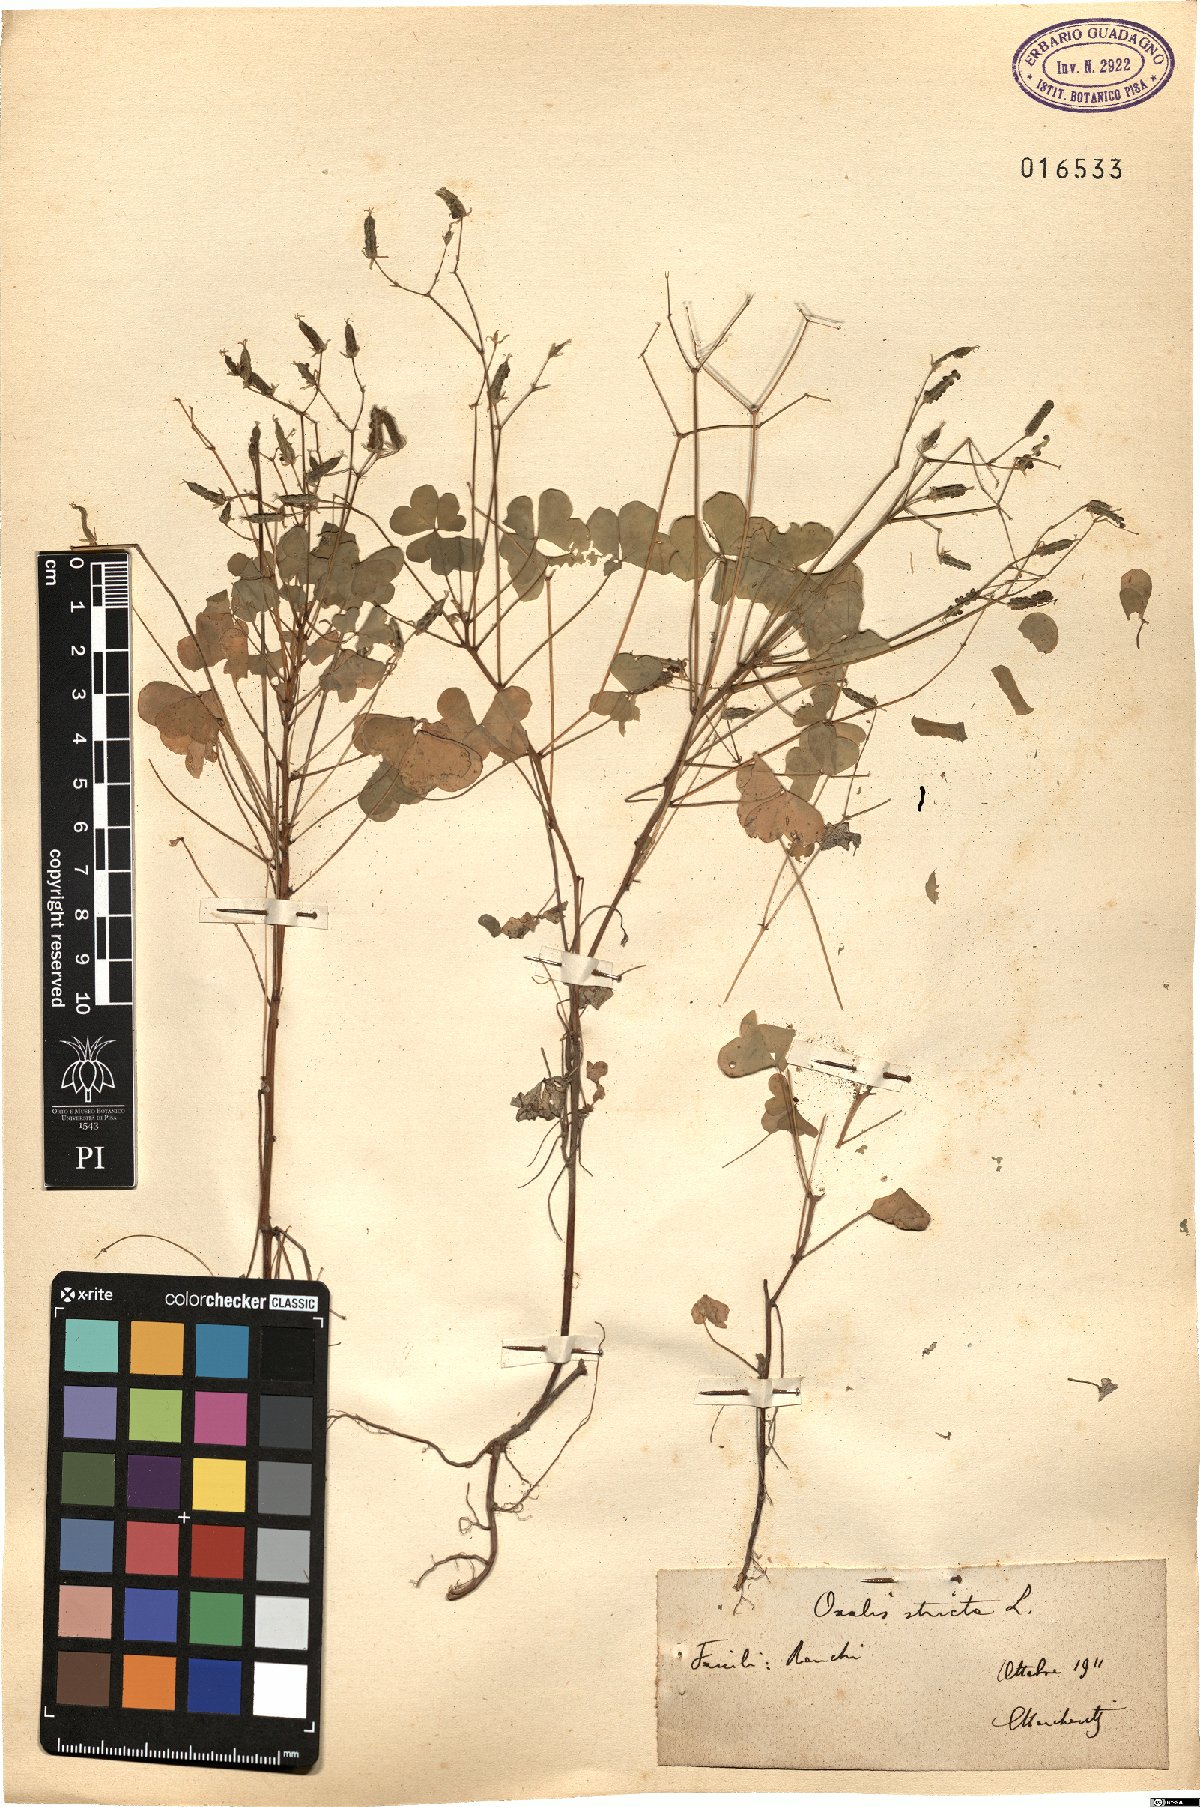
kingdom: Plantae
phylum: Tracheophyta
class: Magnoliopsida
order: Oxalidales
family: Oxalidaceae
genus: Oxalis
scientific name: Oxalis stricta
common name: Upright yellow-sorrel
